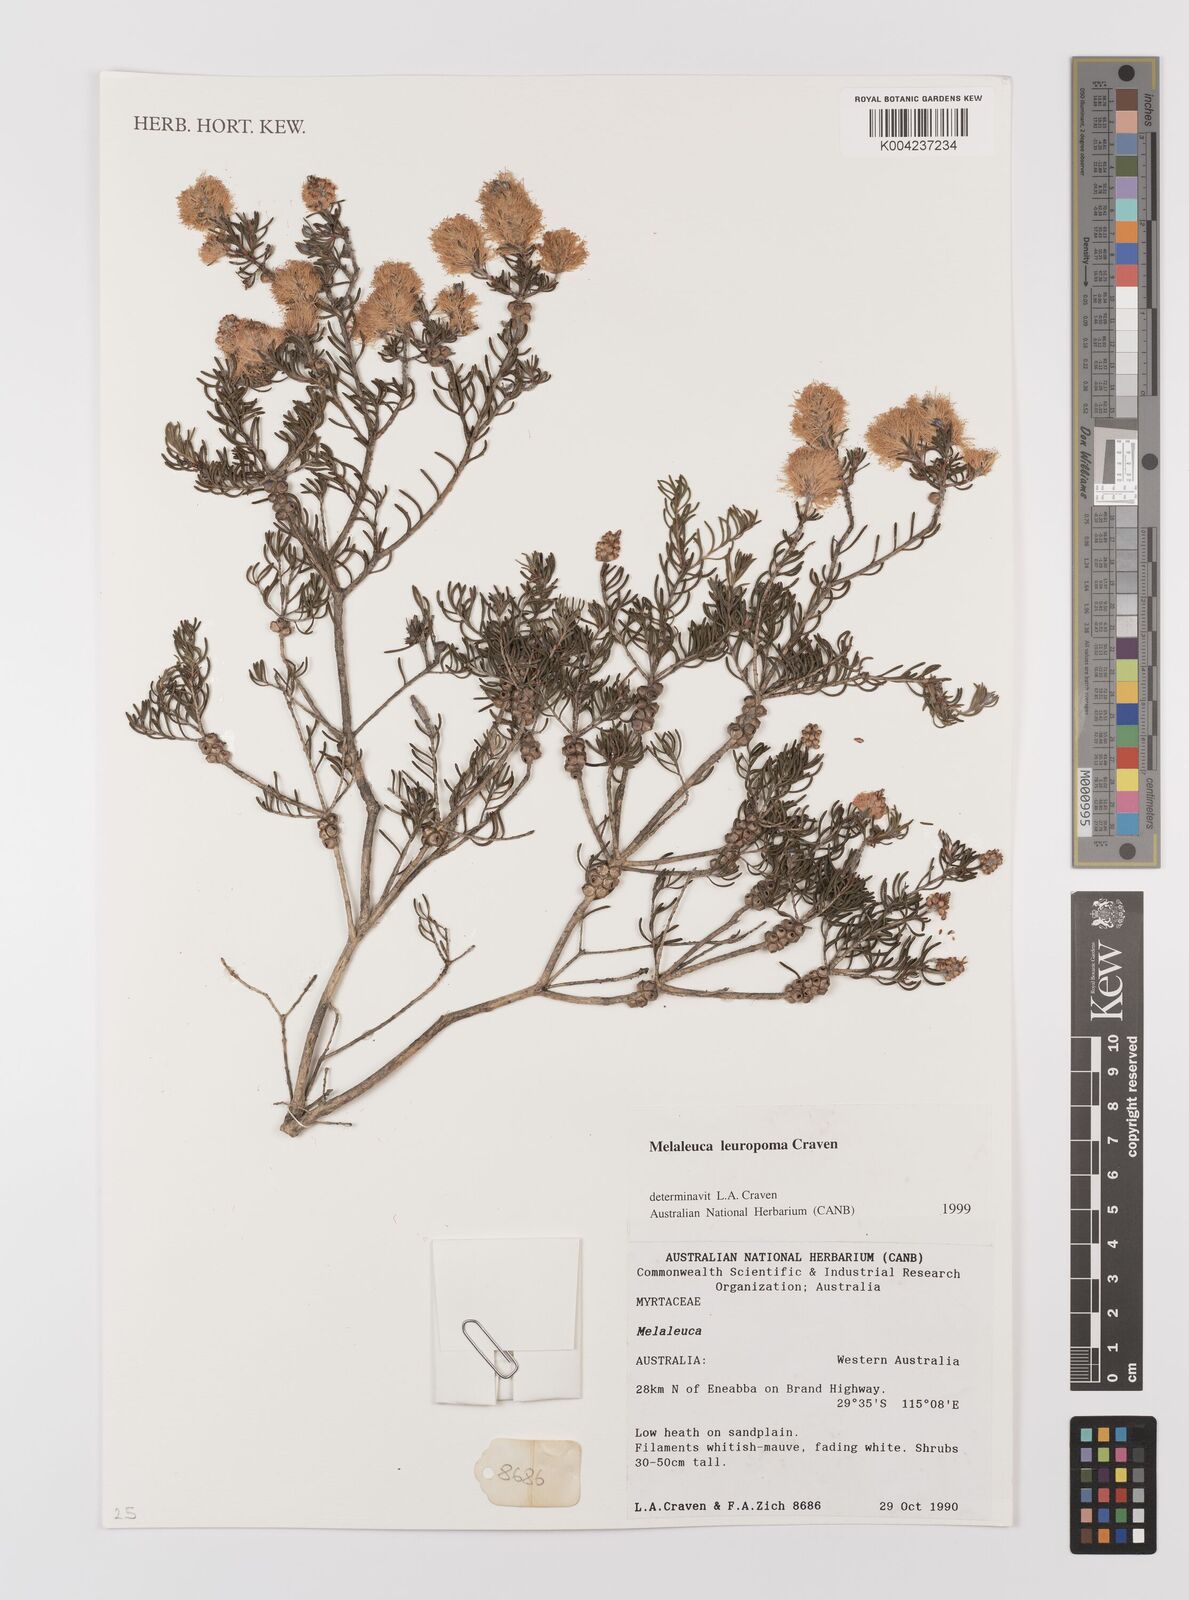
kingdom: Plantae
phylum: Tracheophyta
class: Magnoliopsida
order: Myrtales
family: Myrtaceae
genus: Melaleuca
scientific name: Melaleuca leuropoma
